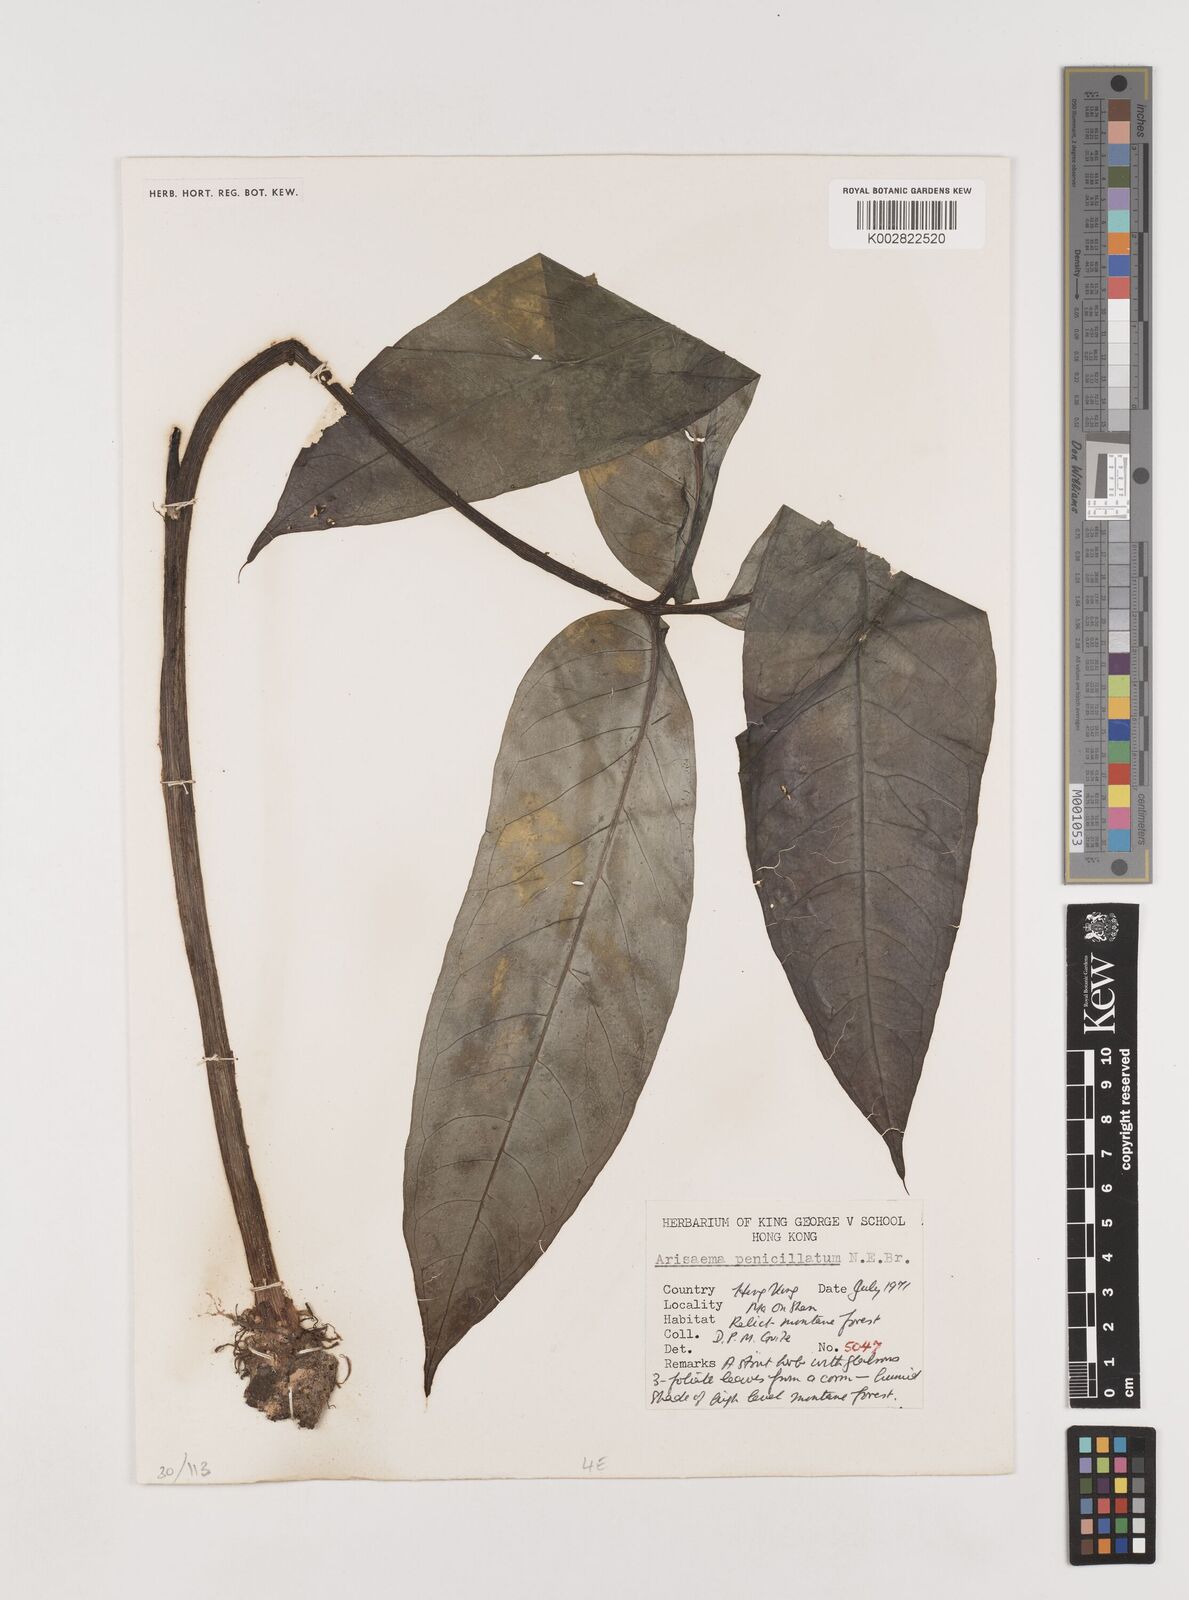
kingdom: Plantae
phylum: Tracheophyta
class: Liliopsida
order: Alismatales
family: Araceae
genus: Arisaema
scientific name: Arisaema penicillatum
